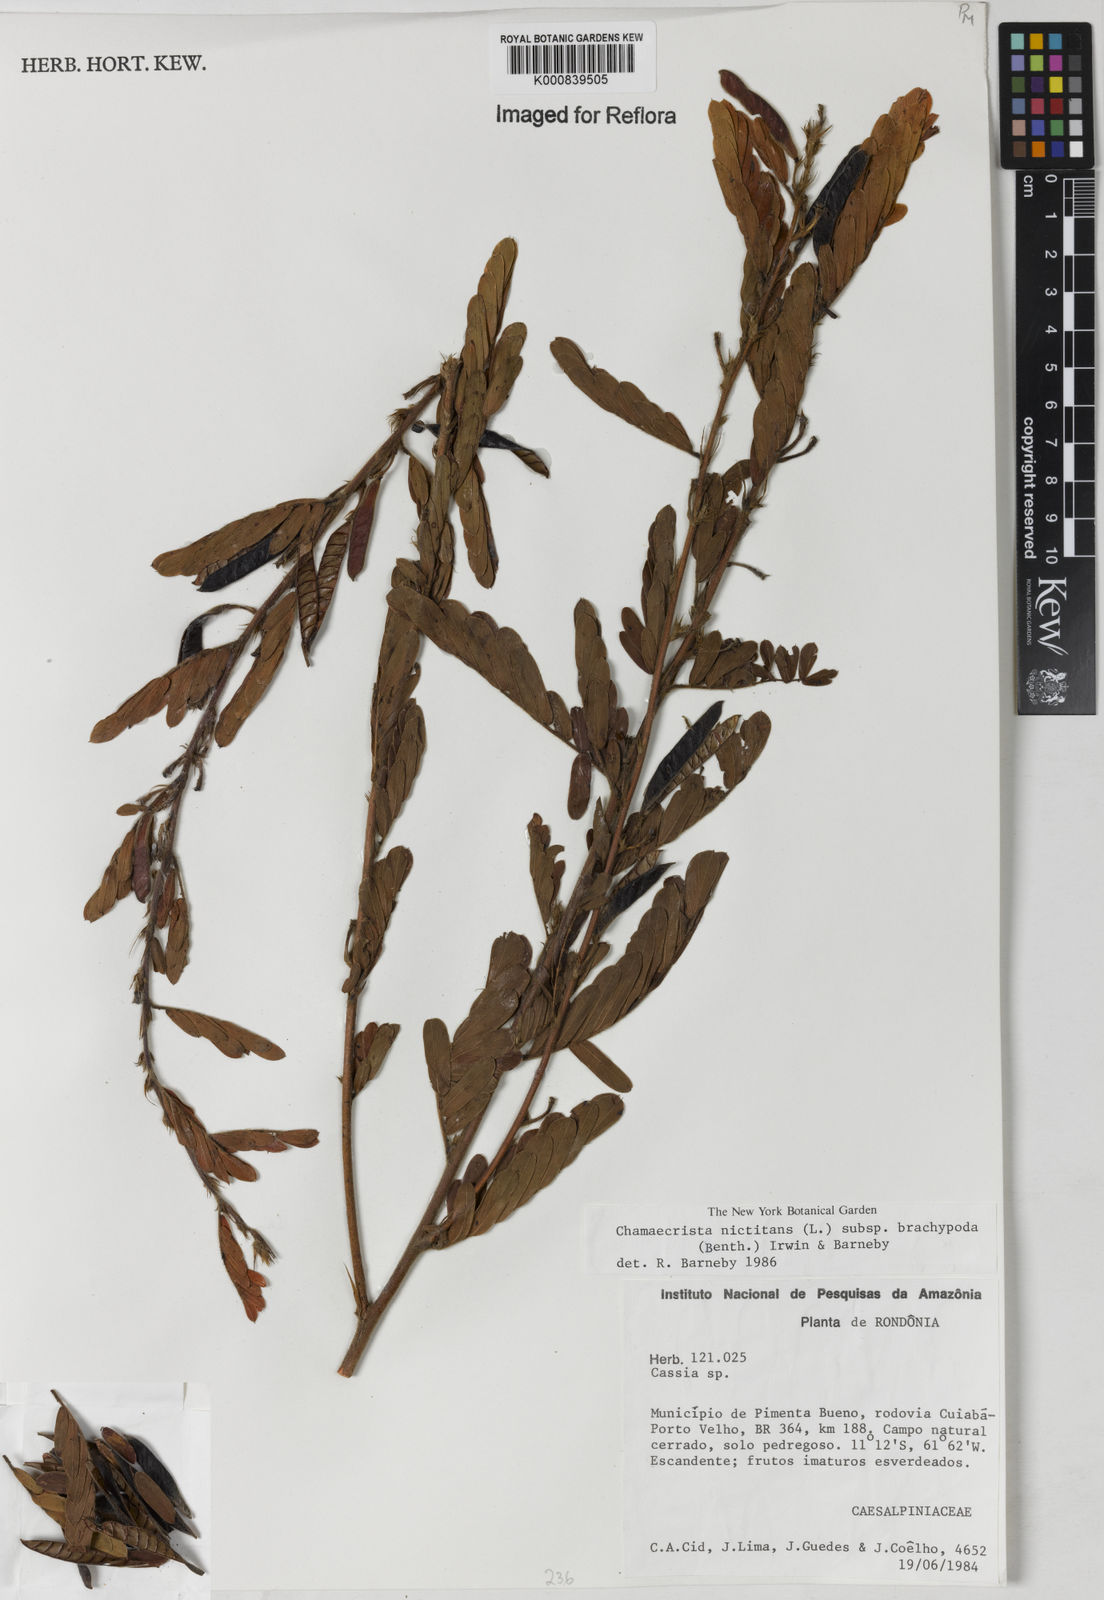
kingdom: Plantae
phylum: Tracheophyta
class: Magnoliopsida
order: Fabales
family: Fabaceae
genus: Chamaecrista
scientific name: Chamaecrista nictitans
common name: Sensitive cassia
